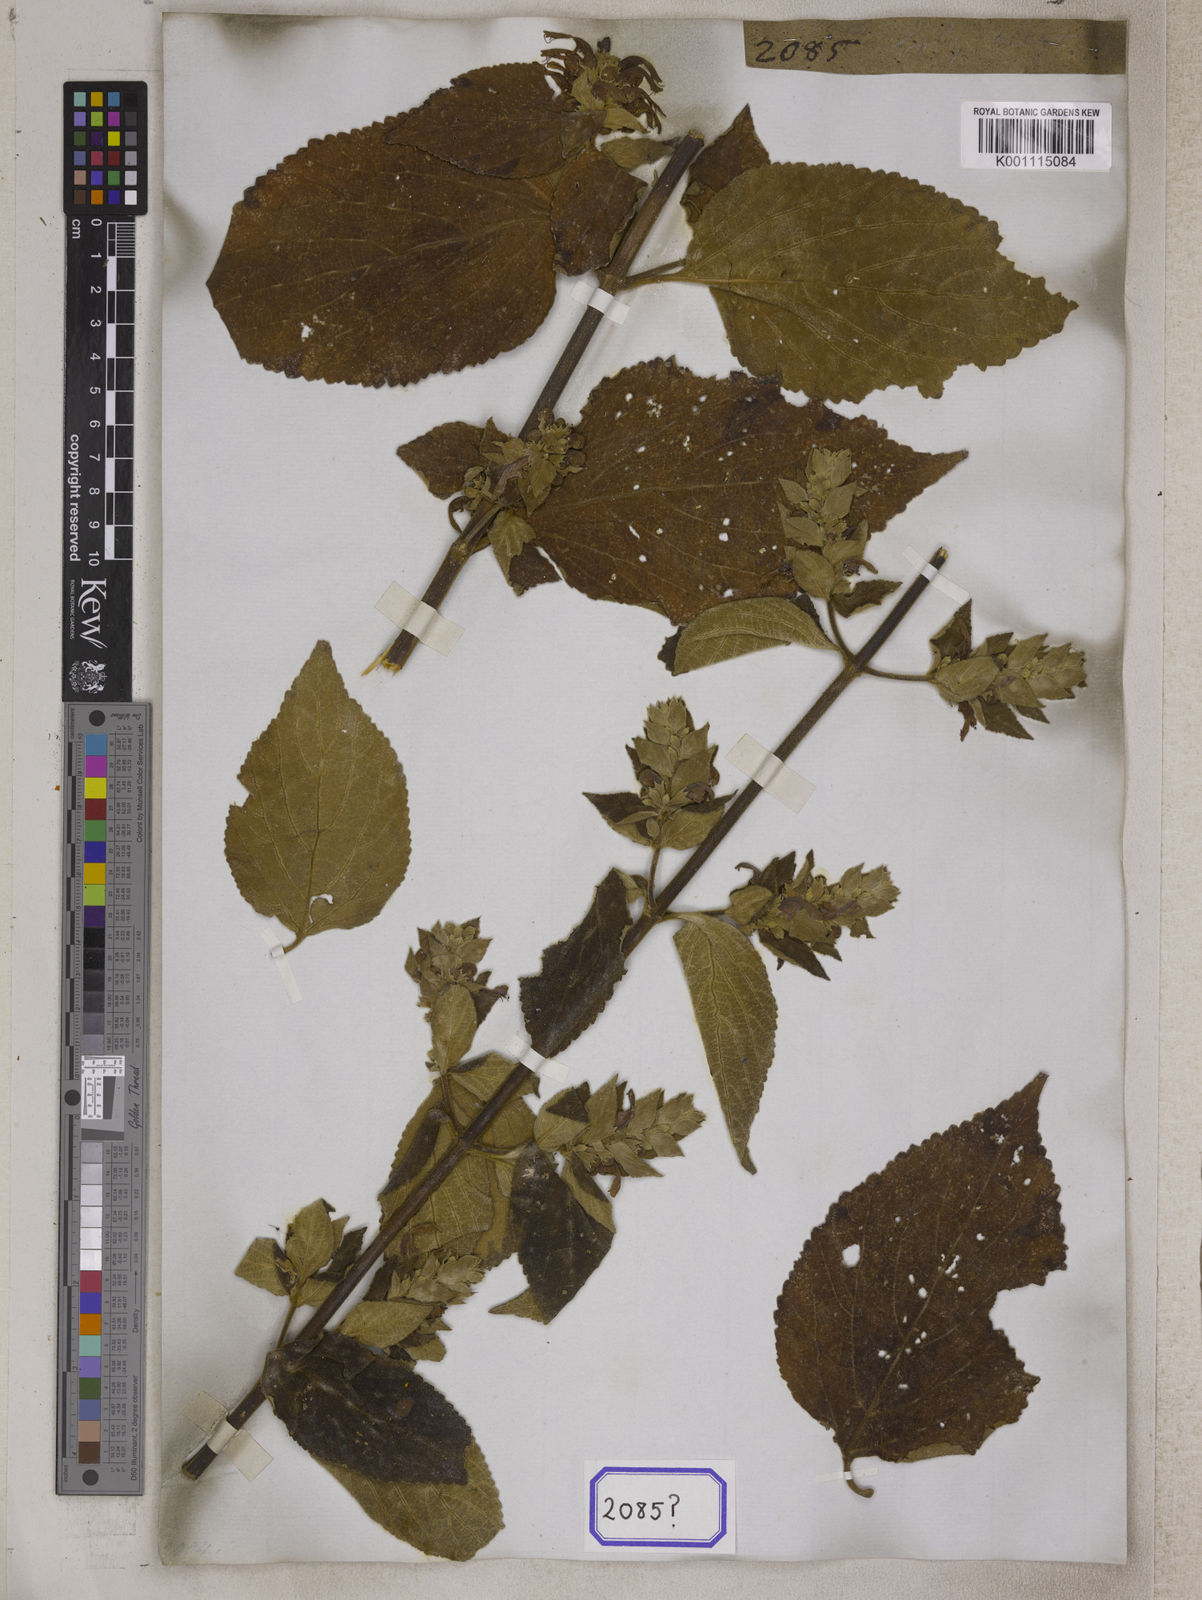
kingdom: Plantae
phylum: Tracheophyta
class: Magnoliopsida
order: Lamiales
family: Lamiaceae
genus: Colquhounia
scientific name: Colquhounia coccinea
